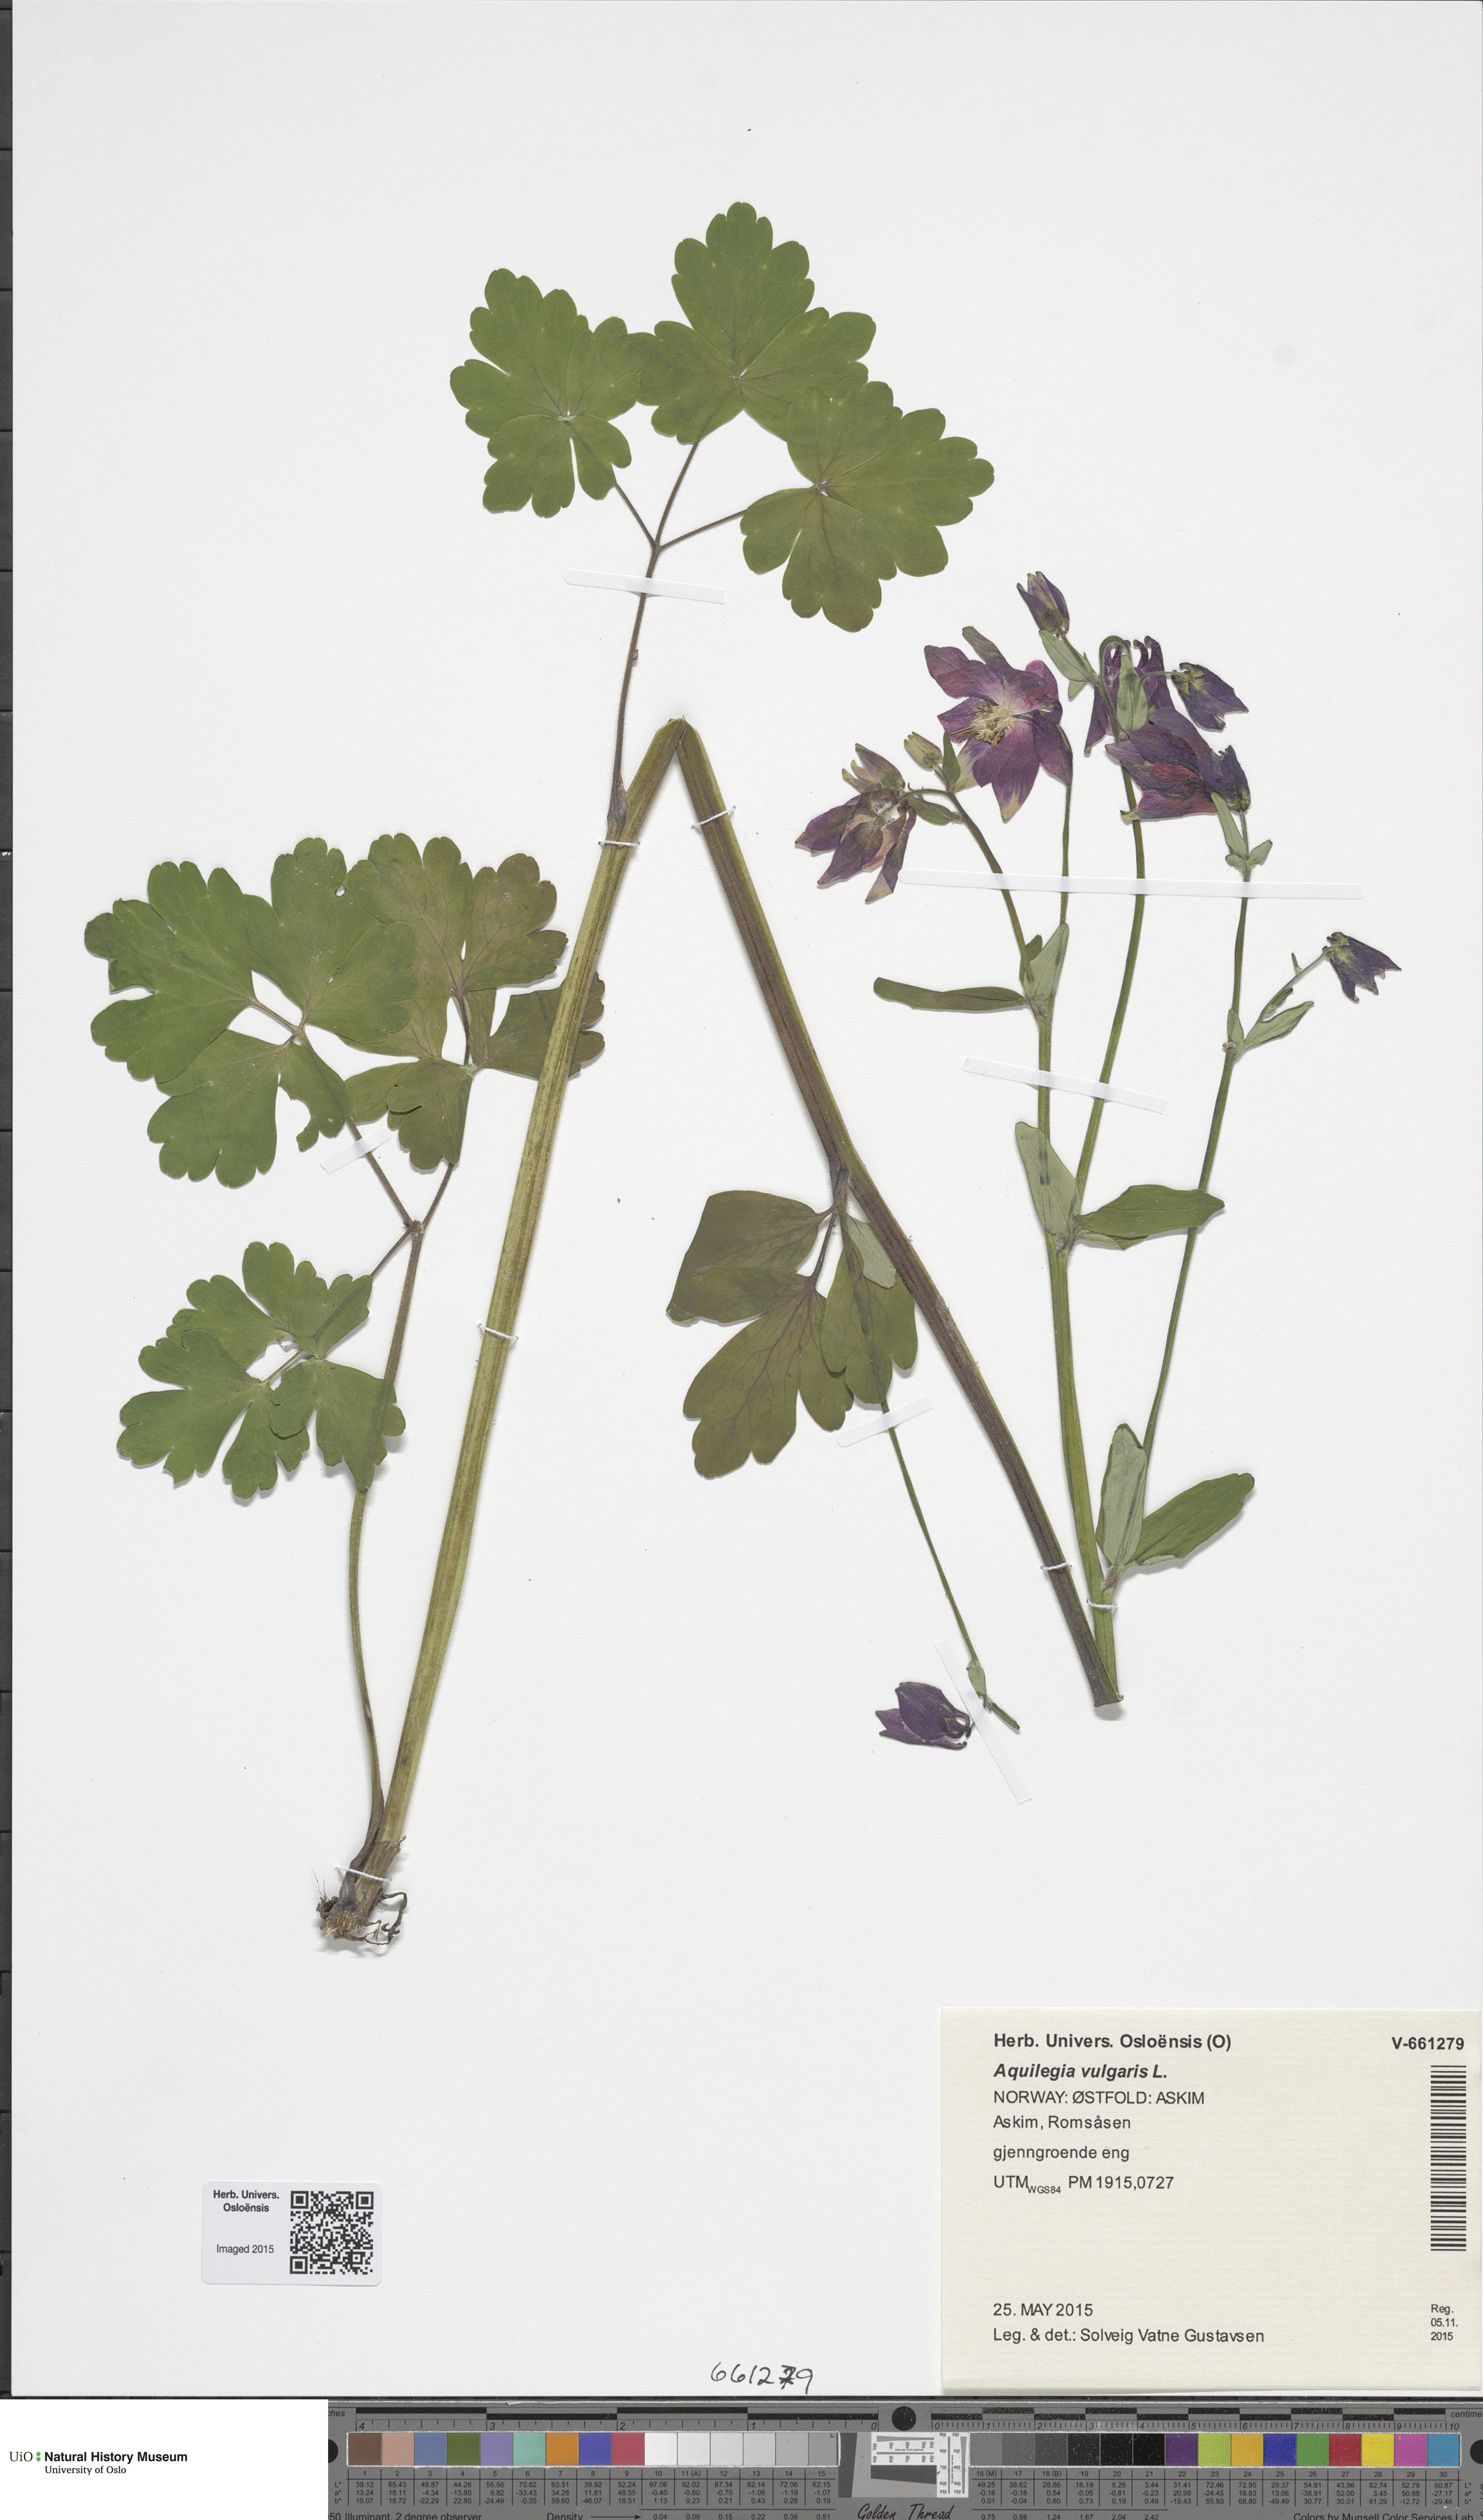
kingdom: Plantae
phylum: Tracheophyta
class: Magnoliopsida
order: Ranunculales
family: Ranunculaceae
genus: Aquilegia
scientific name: Aquilegia vulgaris
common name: Columbine
